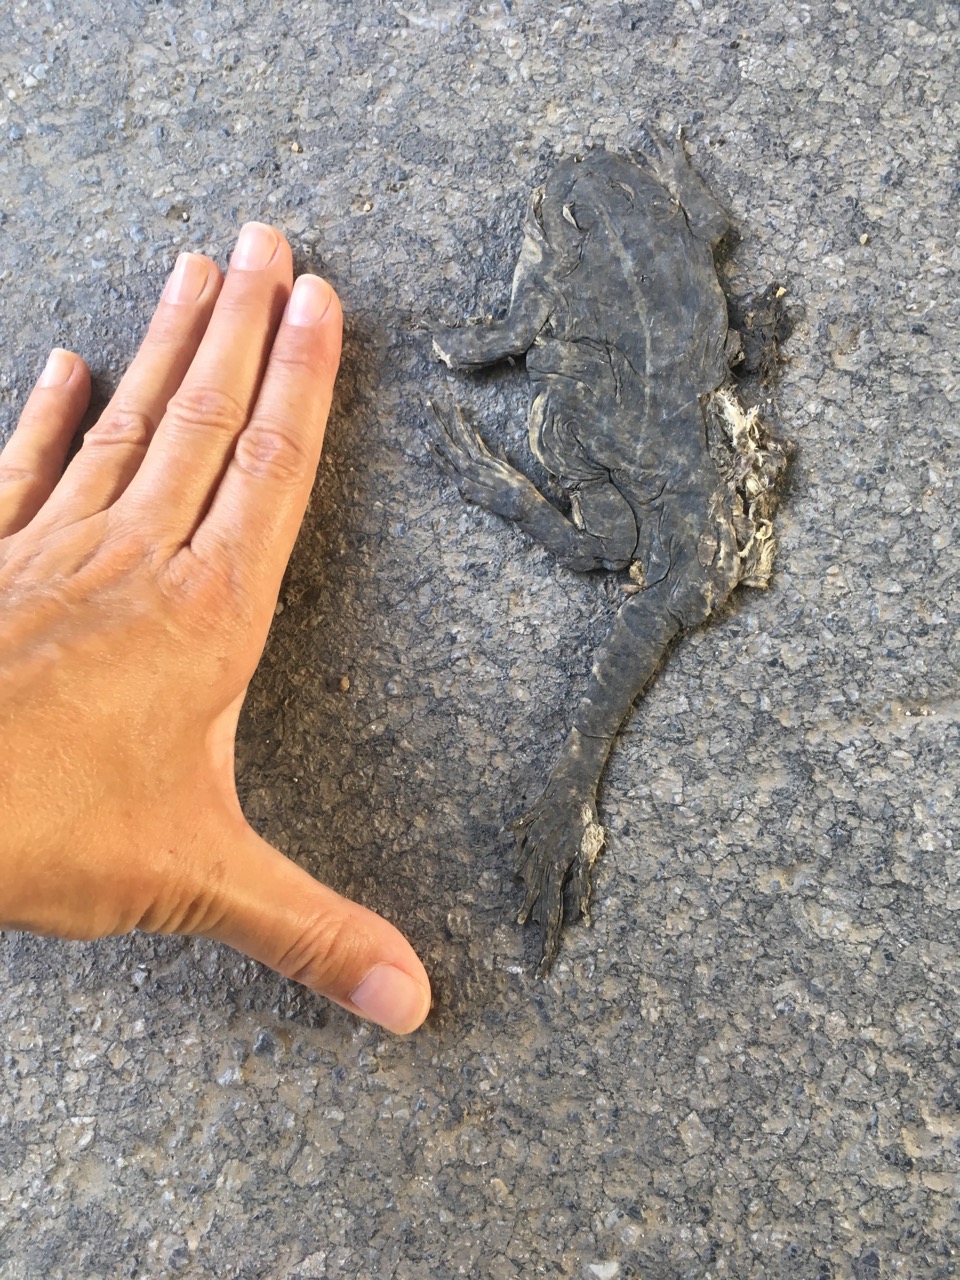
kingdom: Animalia
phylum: Chordata
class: Amphibia
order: Anura
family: Bufonidae
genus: Bufotes
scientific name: Bufotes viridis
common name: European green toad
